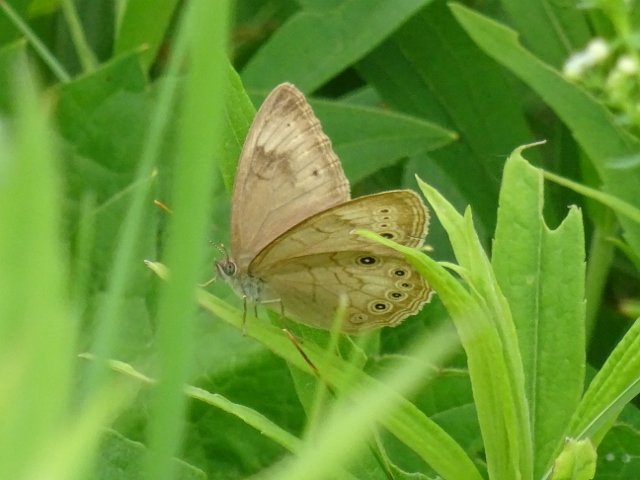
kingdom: Animalia
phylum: Arthropoda
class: Insecta
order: Lepidoptera
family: Nymphalidae
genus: Lethe
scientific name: Lethe eurydice
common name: Eyed Brown
